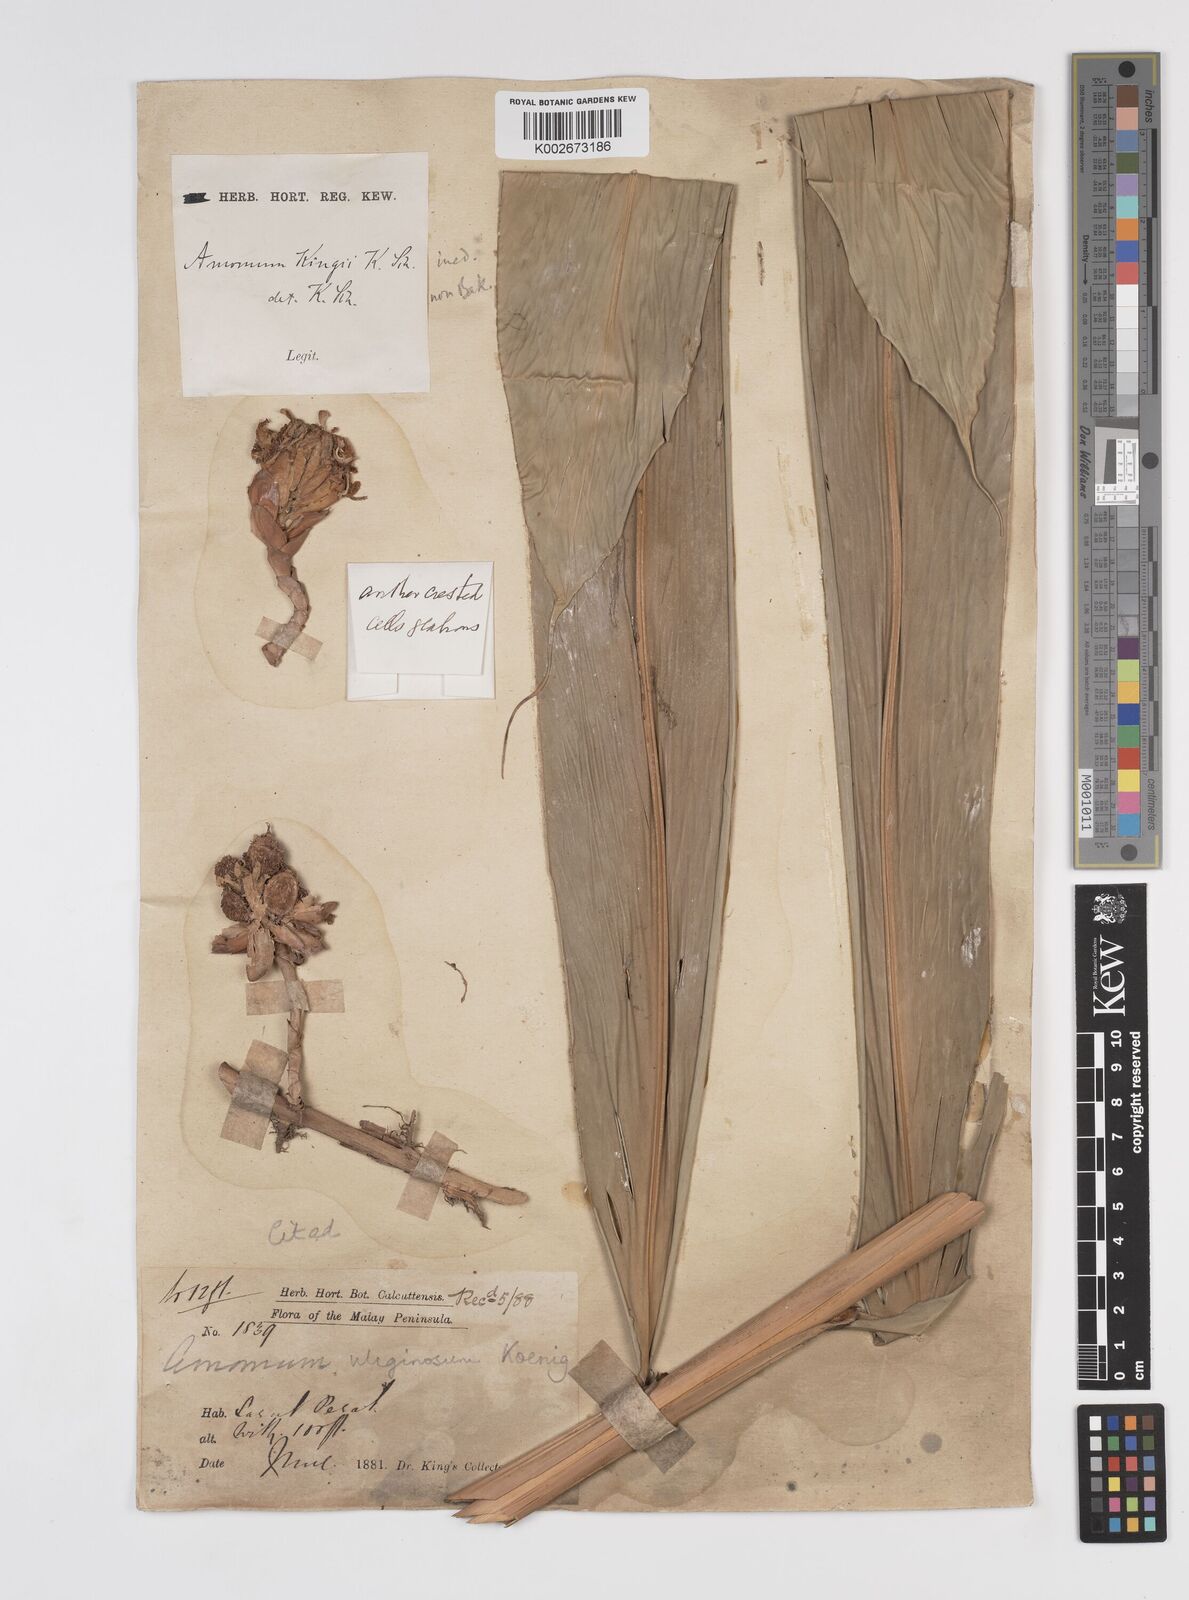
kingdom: Plantae
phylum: Tracheophyta
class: Liliopsida
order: Zingiberales
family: Zingiberaceae
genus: Wurfbainia
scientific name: Wurfbainia uliginosa
